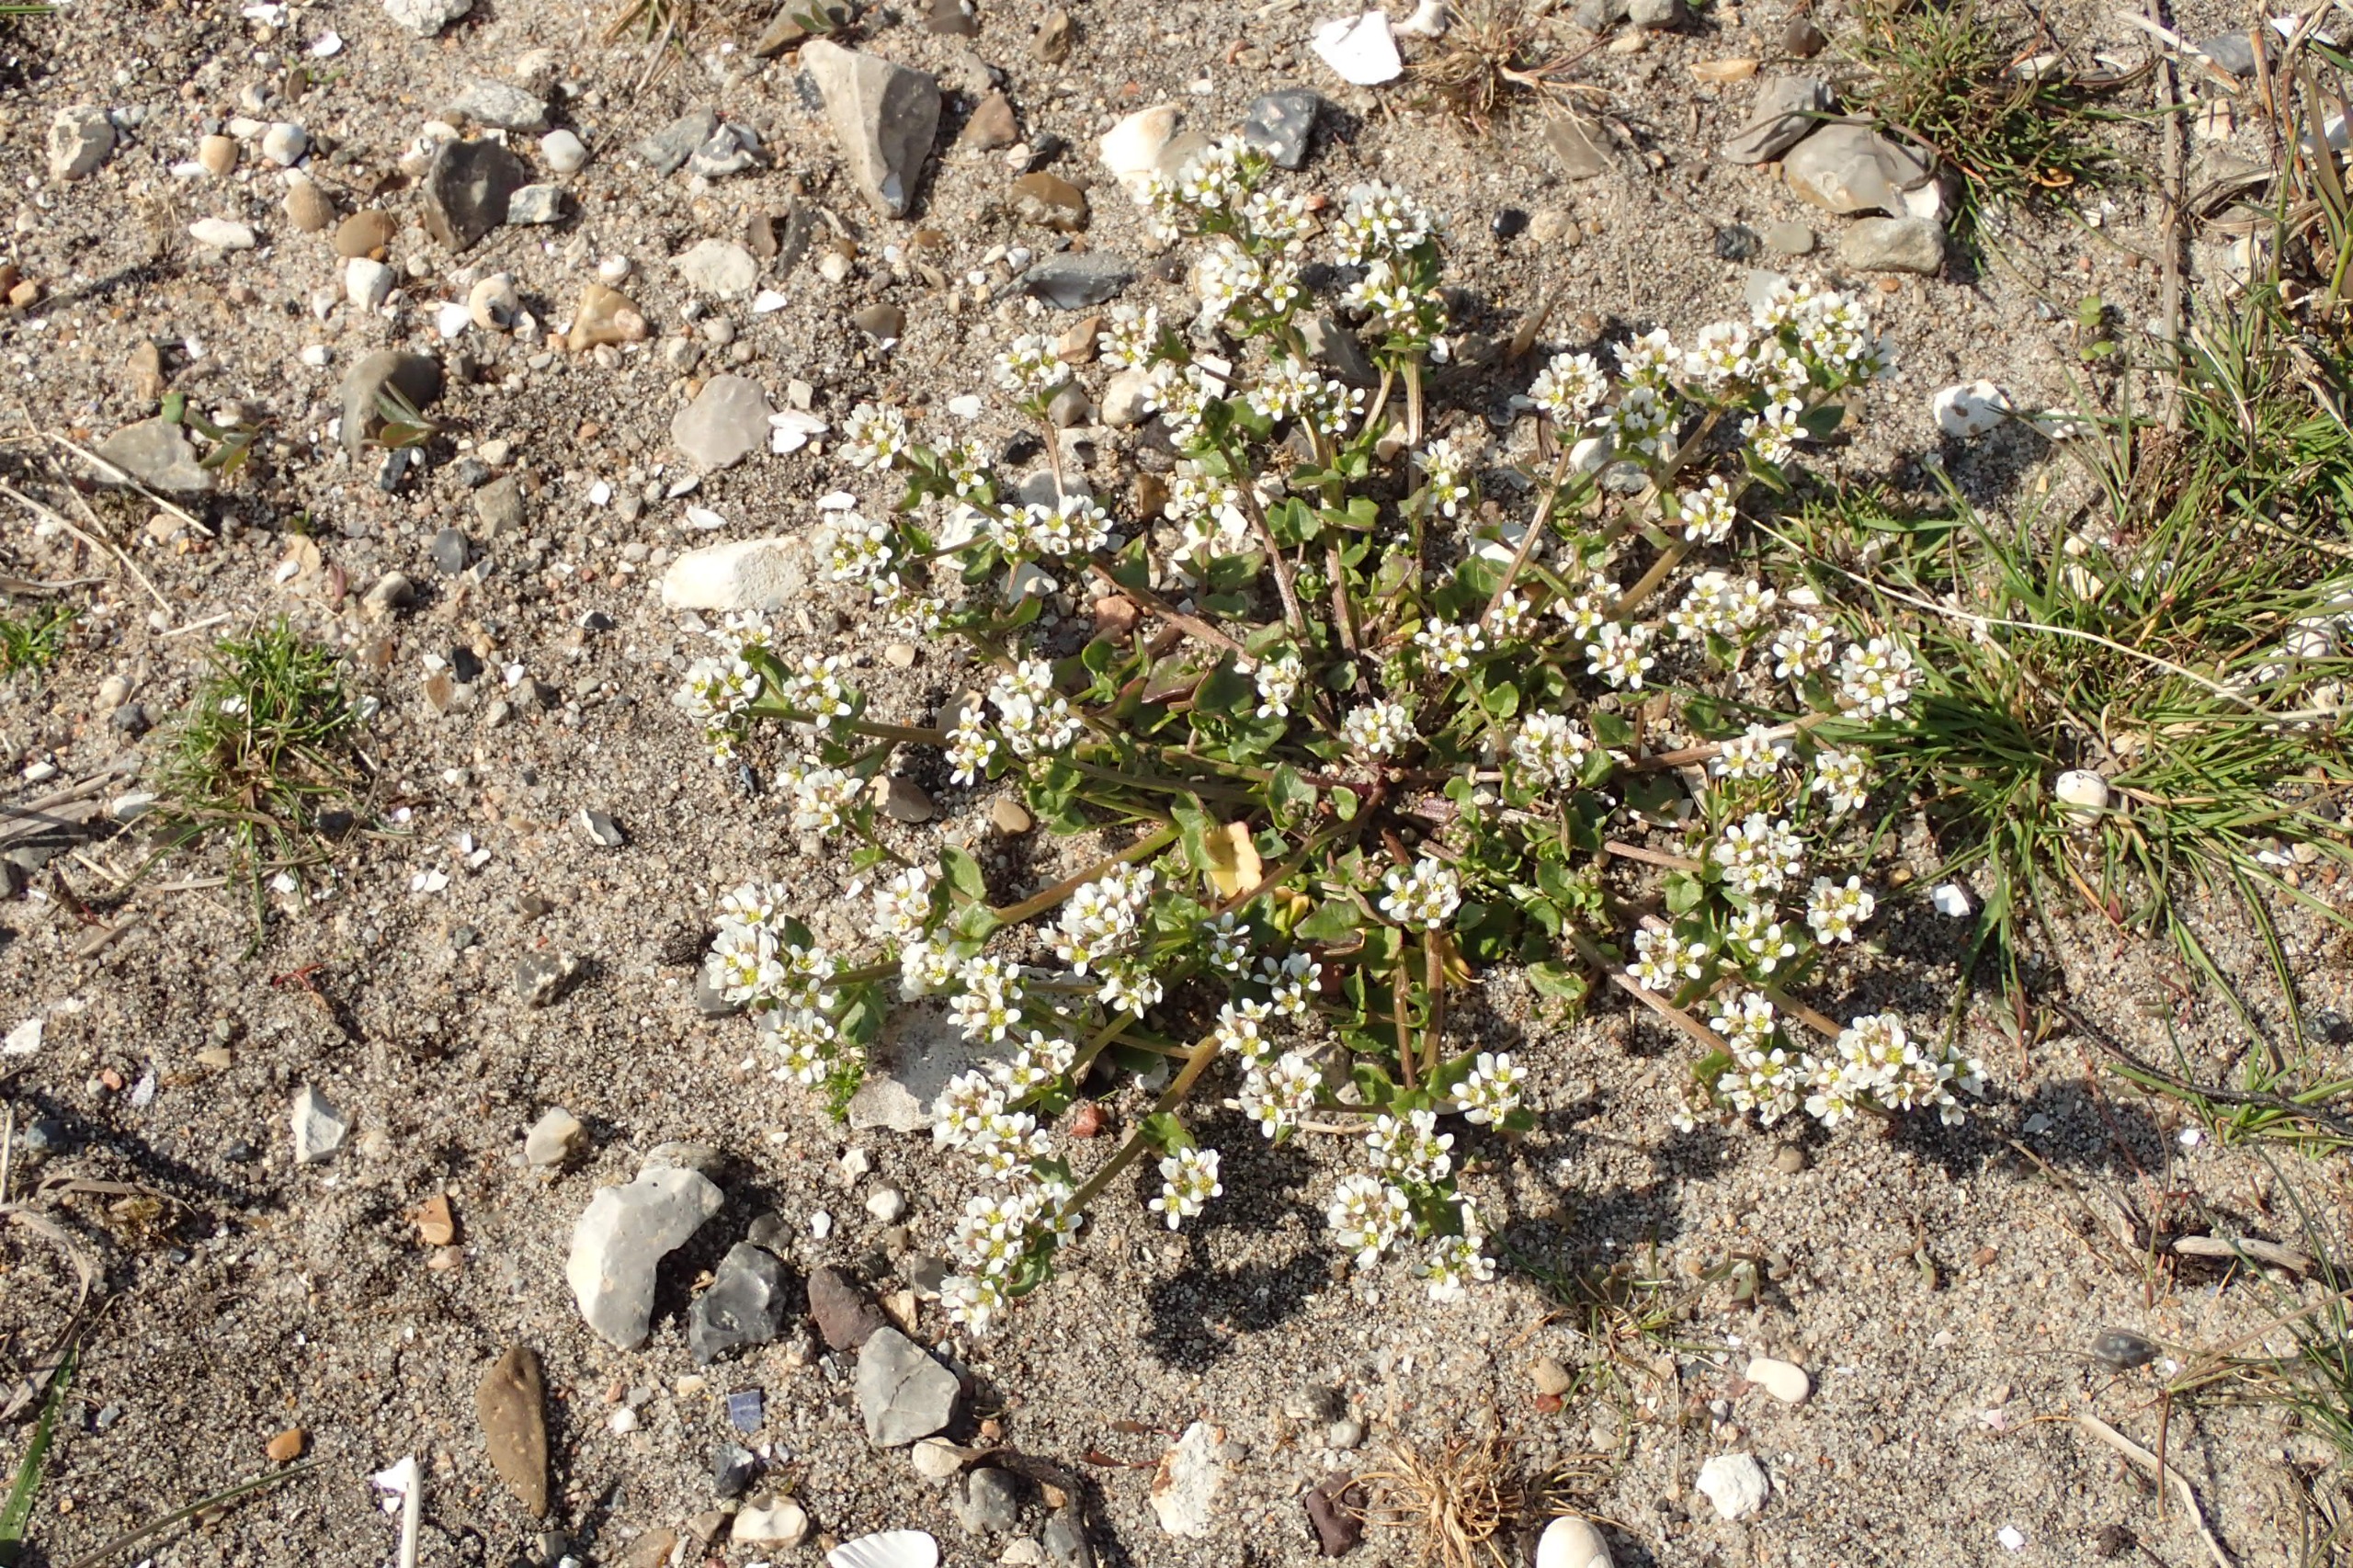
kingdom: Plantae
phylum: Tracheophyta
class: Magnoliopsida
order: Brassicales
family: Brassicaceae
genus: Cochlearia
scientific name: Cochlearia danica
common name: Dansk kokleare
